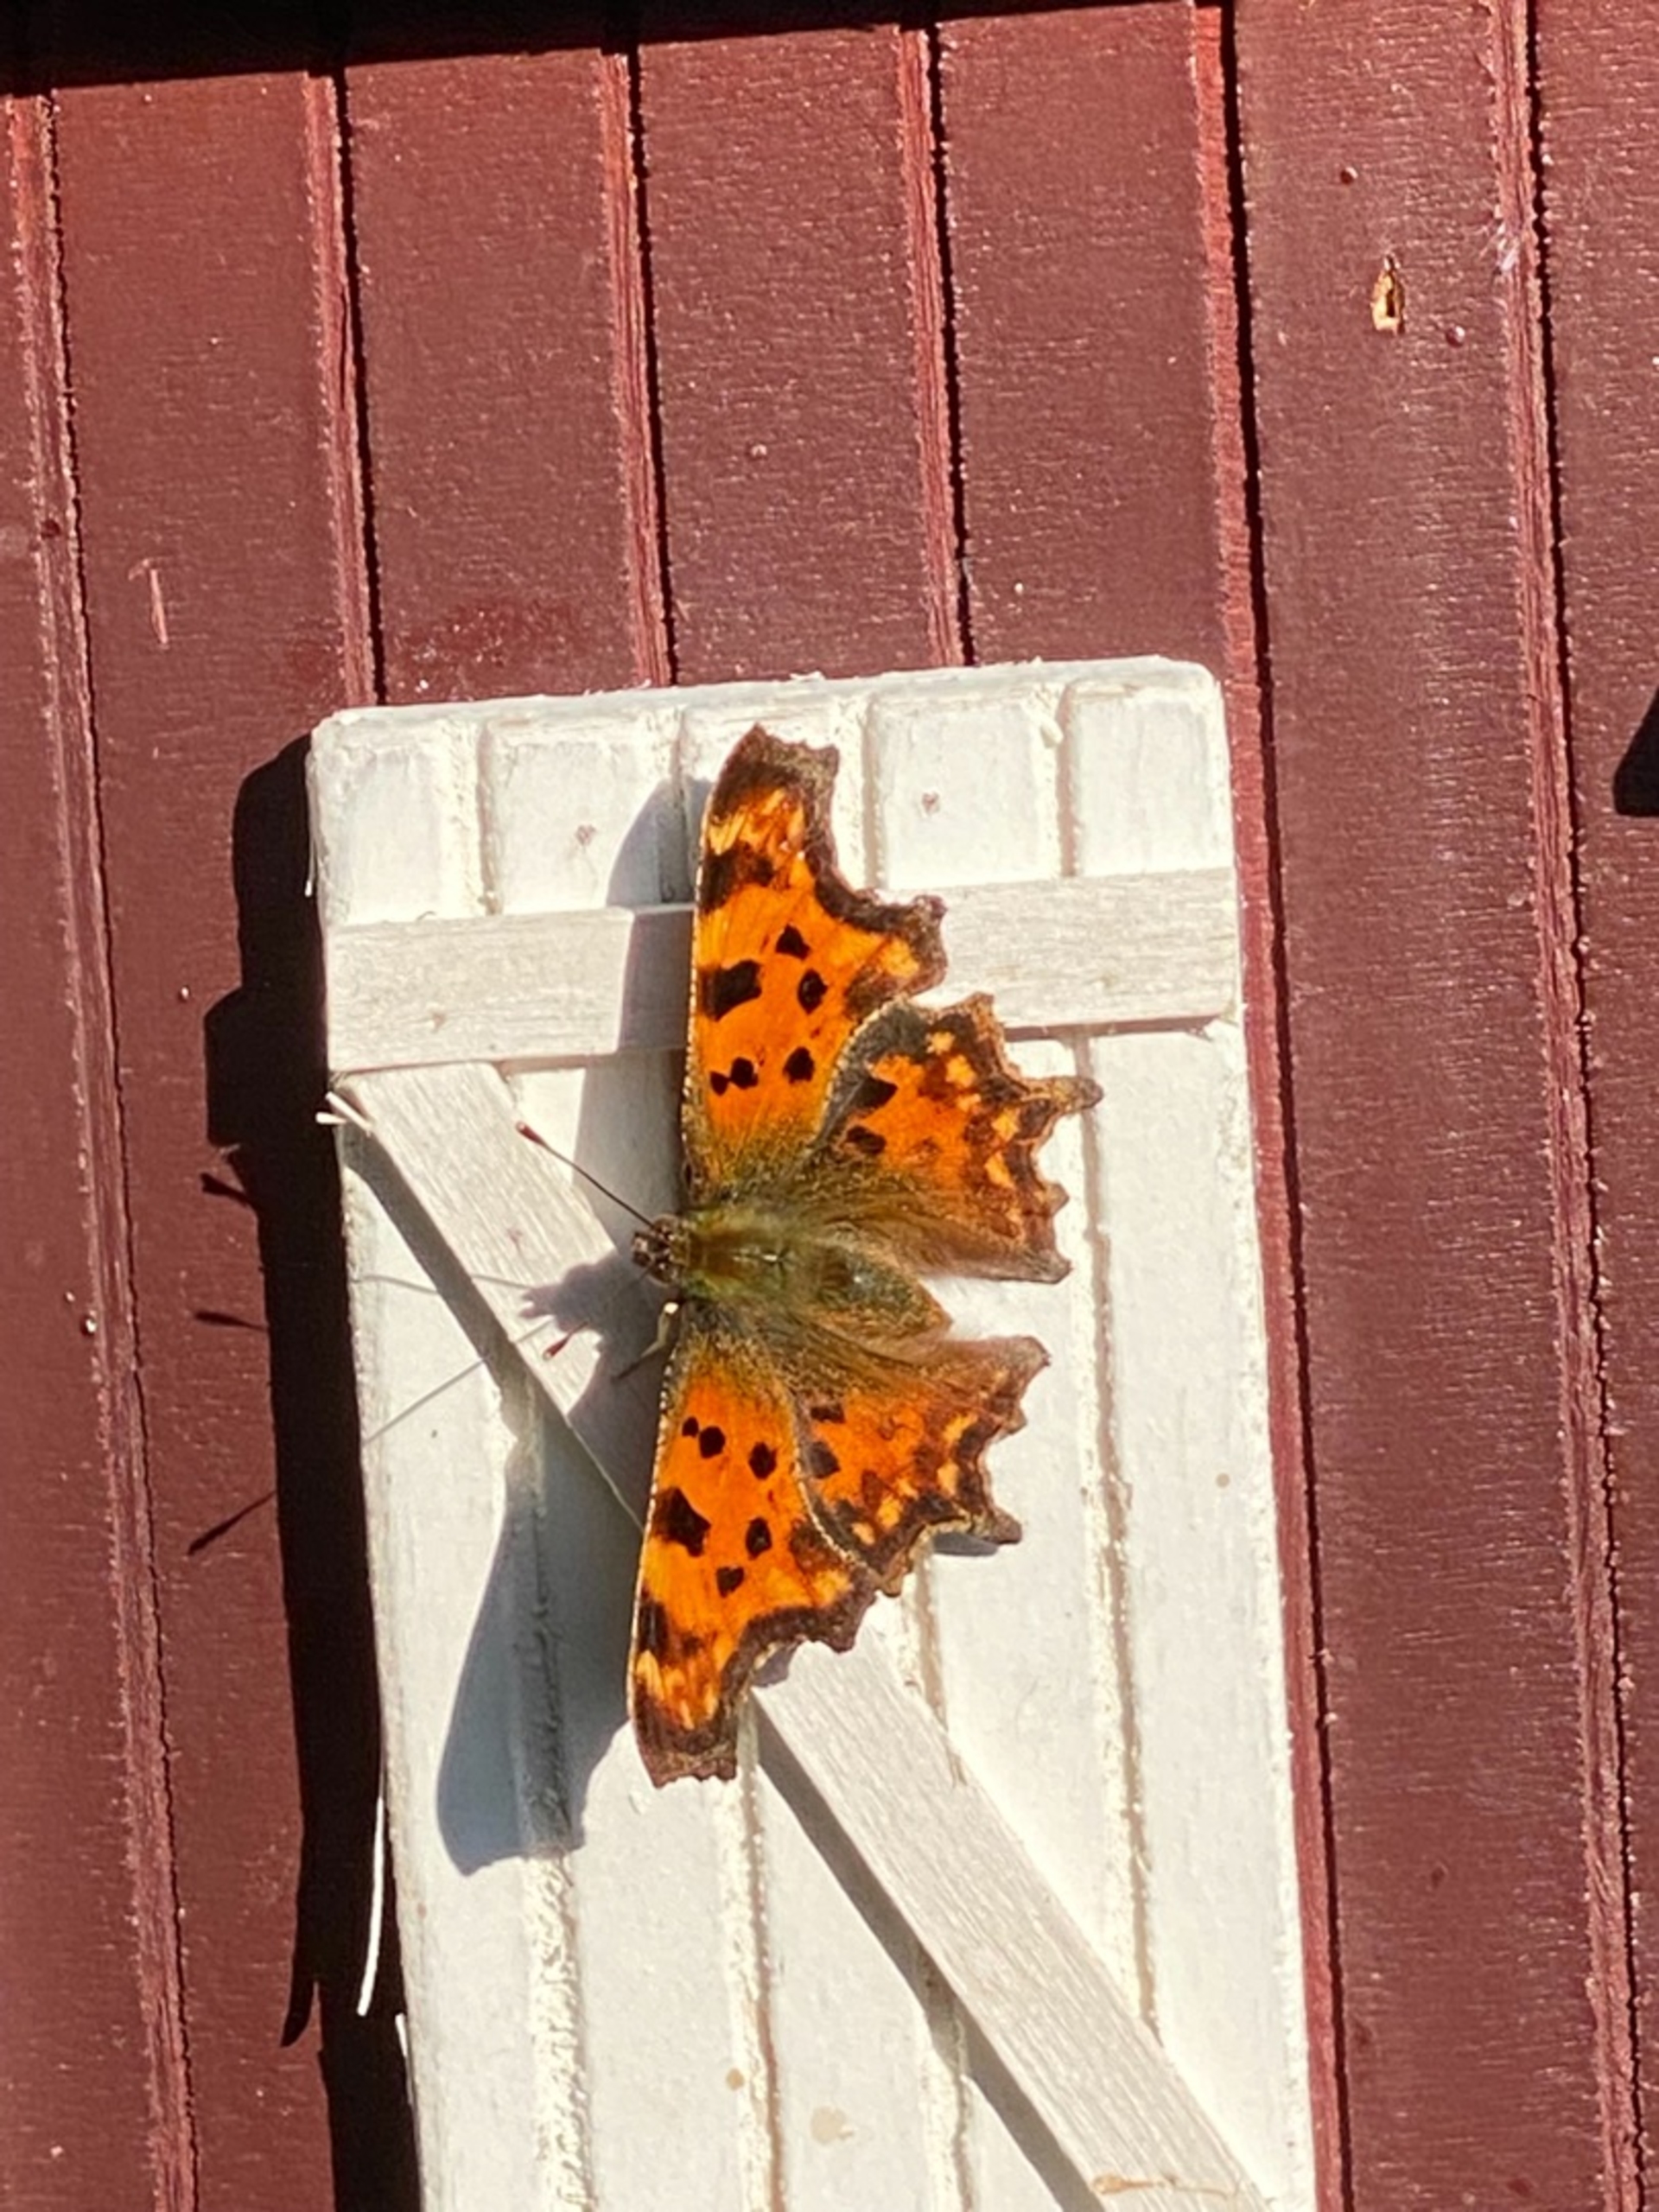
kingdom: Animalia
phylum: Arthropoda
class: Insecta
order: Lepidoptera
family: Nymphalidae
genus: Polygonia
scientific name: Polygonia c-album
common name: Det hvide C
